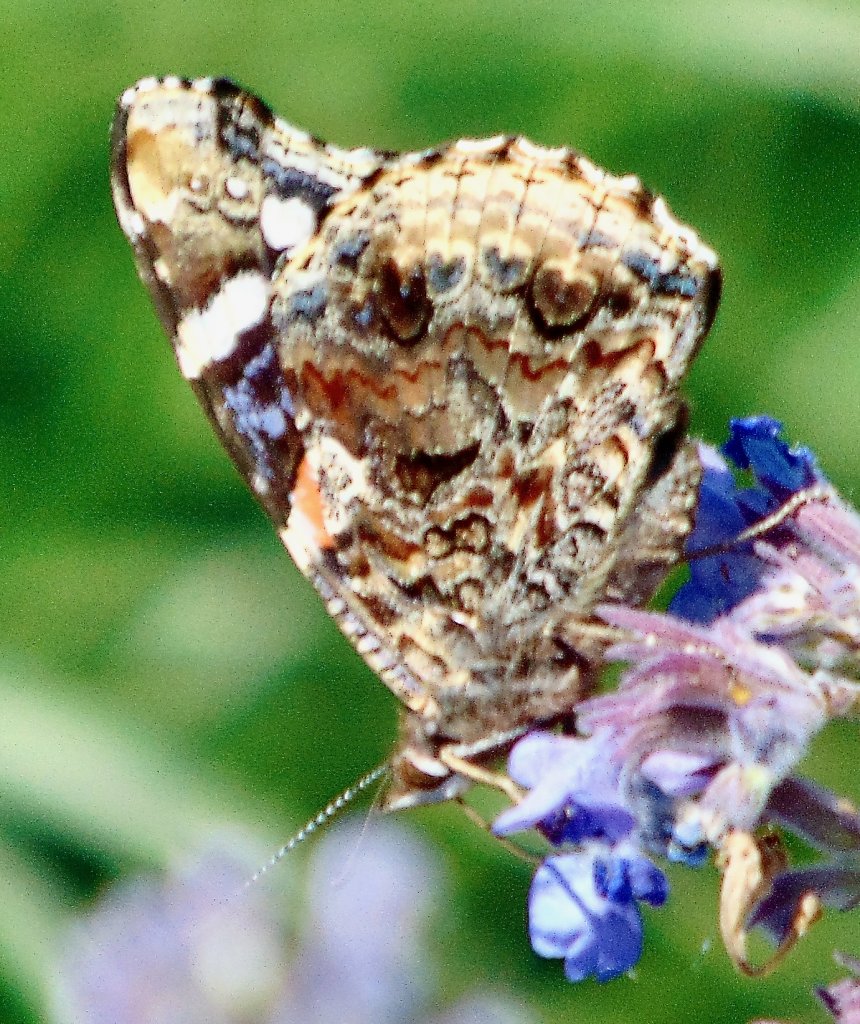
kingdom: Animalia
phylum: Arthropoda
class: Insecta
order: Lepidoptera
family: Nymphalidae
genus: Vanessa
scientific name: Vanessa atalanta
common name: Red Admiral
